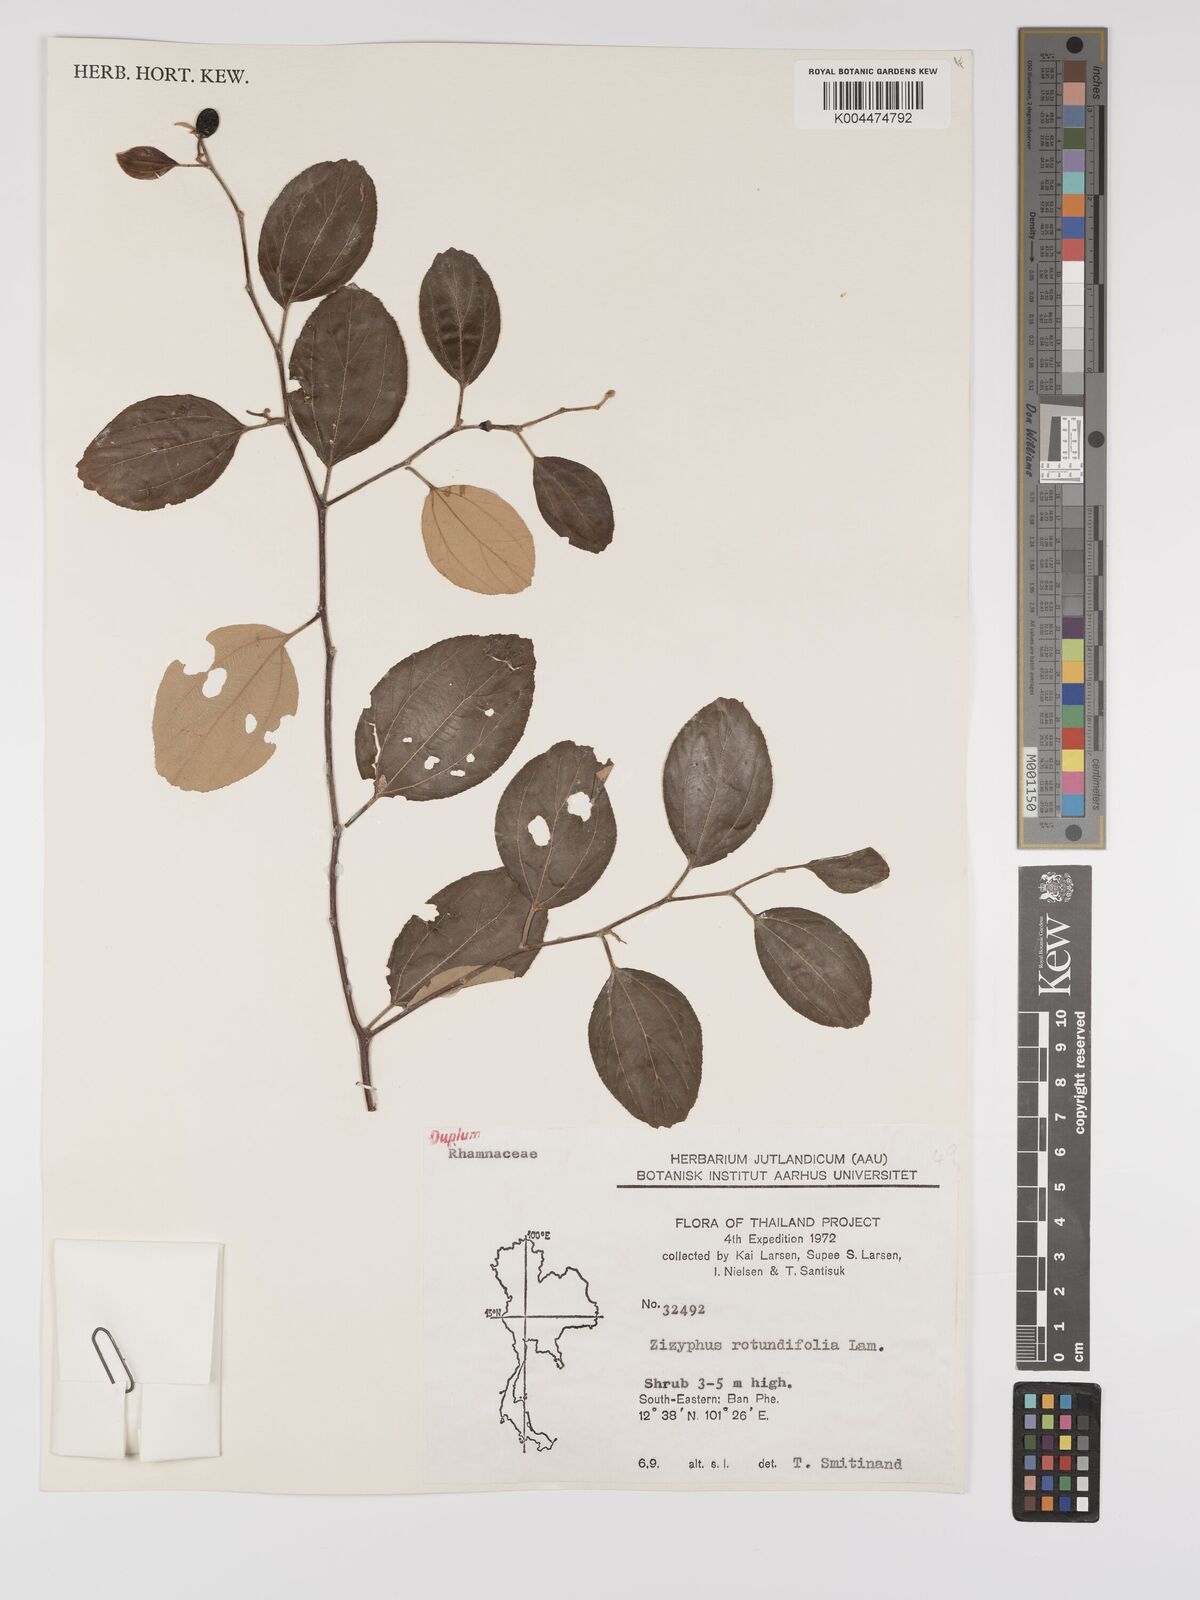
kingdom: Plantae
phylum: Tracheophyta
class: Magnoliopsida
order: Rosales
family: Rhamnaceae
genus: Ziziphus
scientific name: Ziziphus
